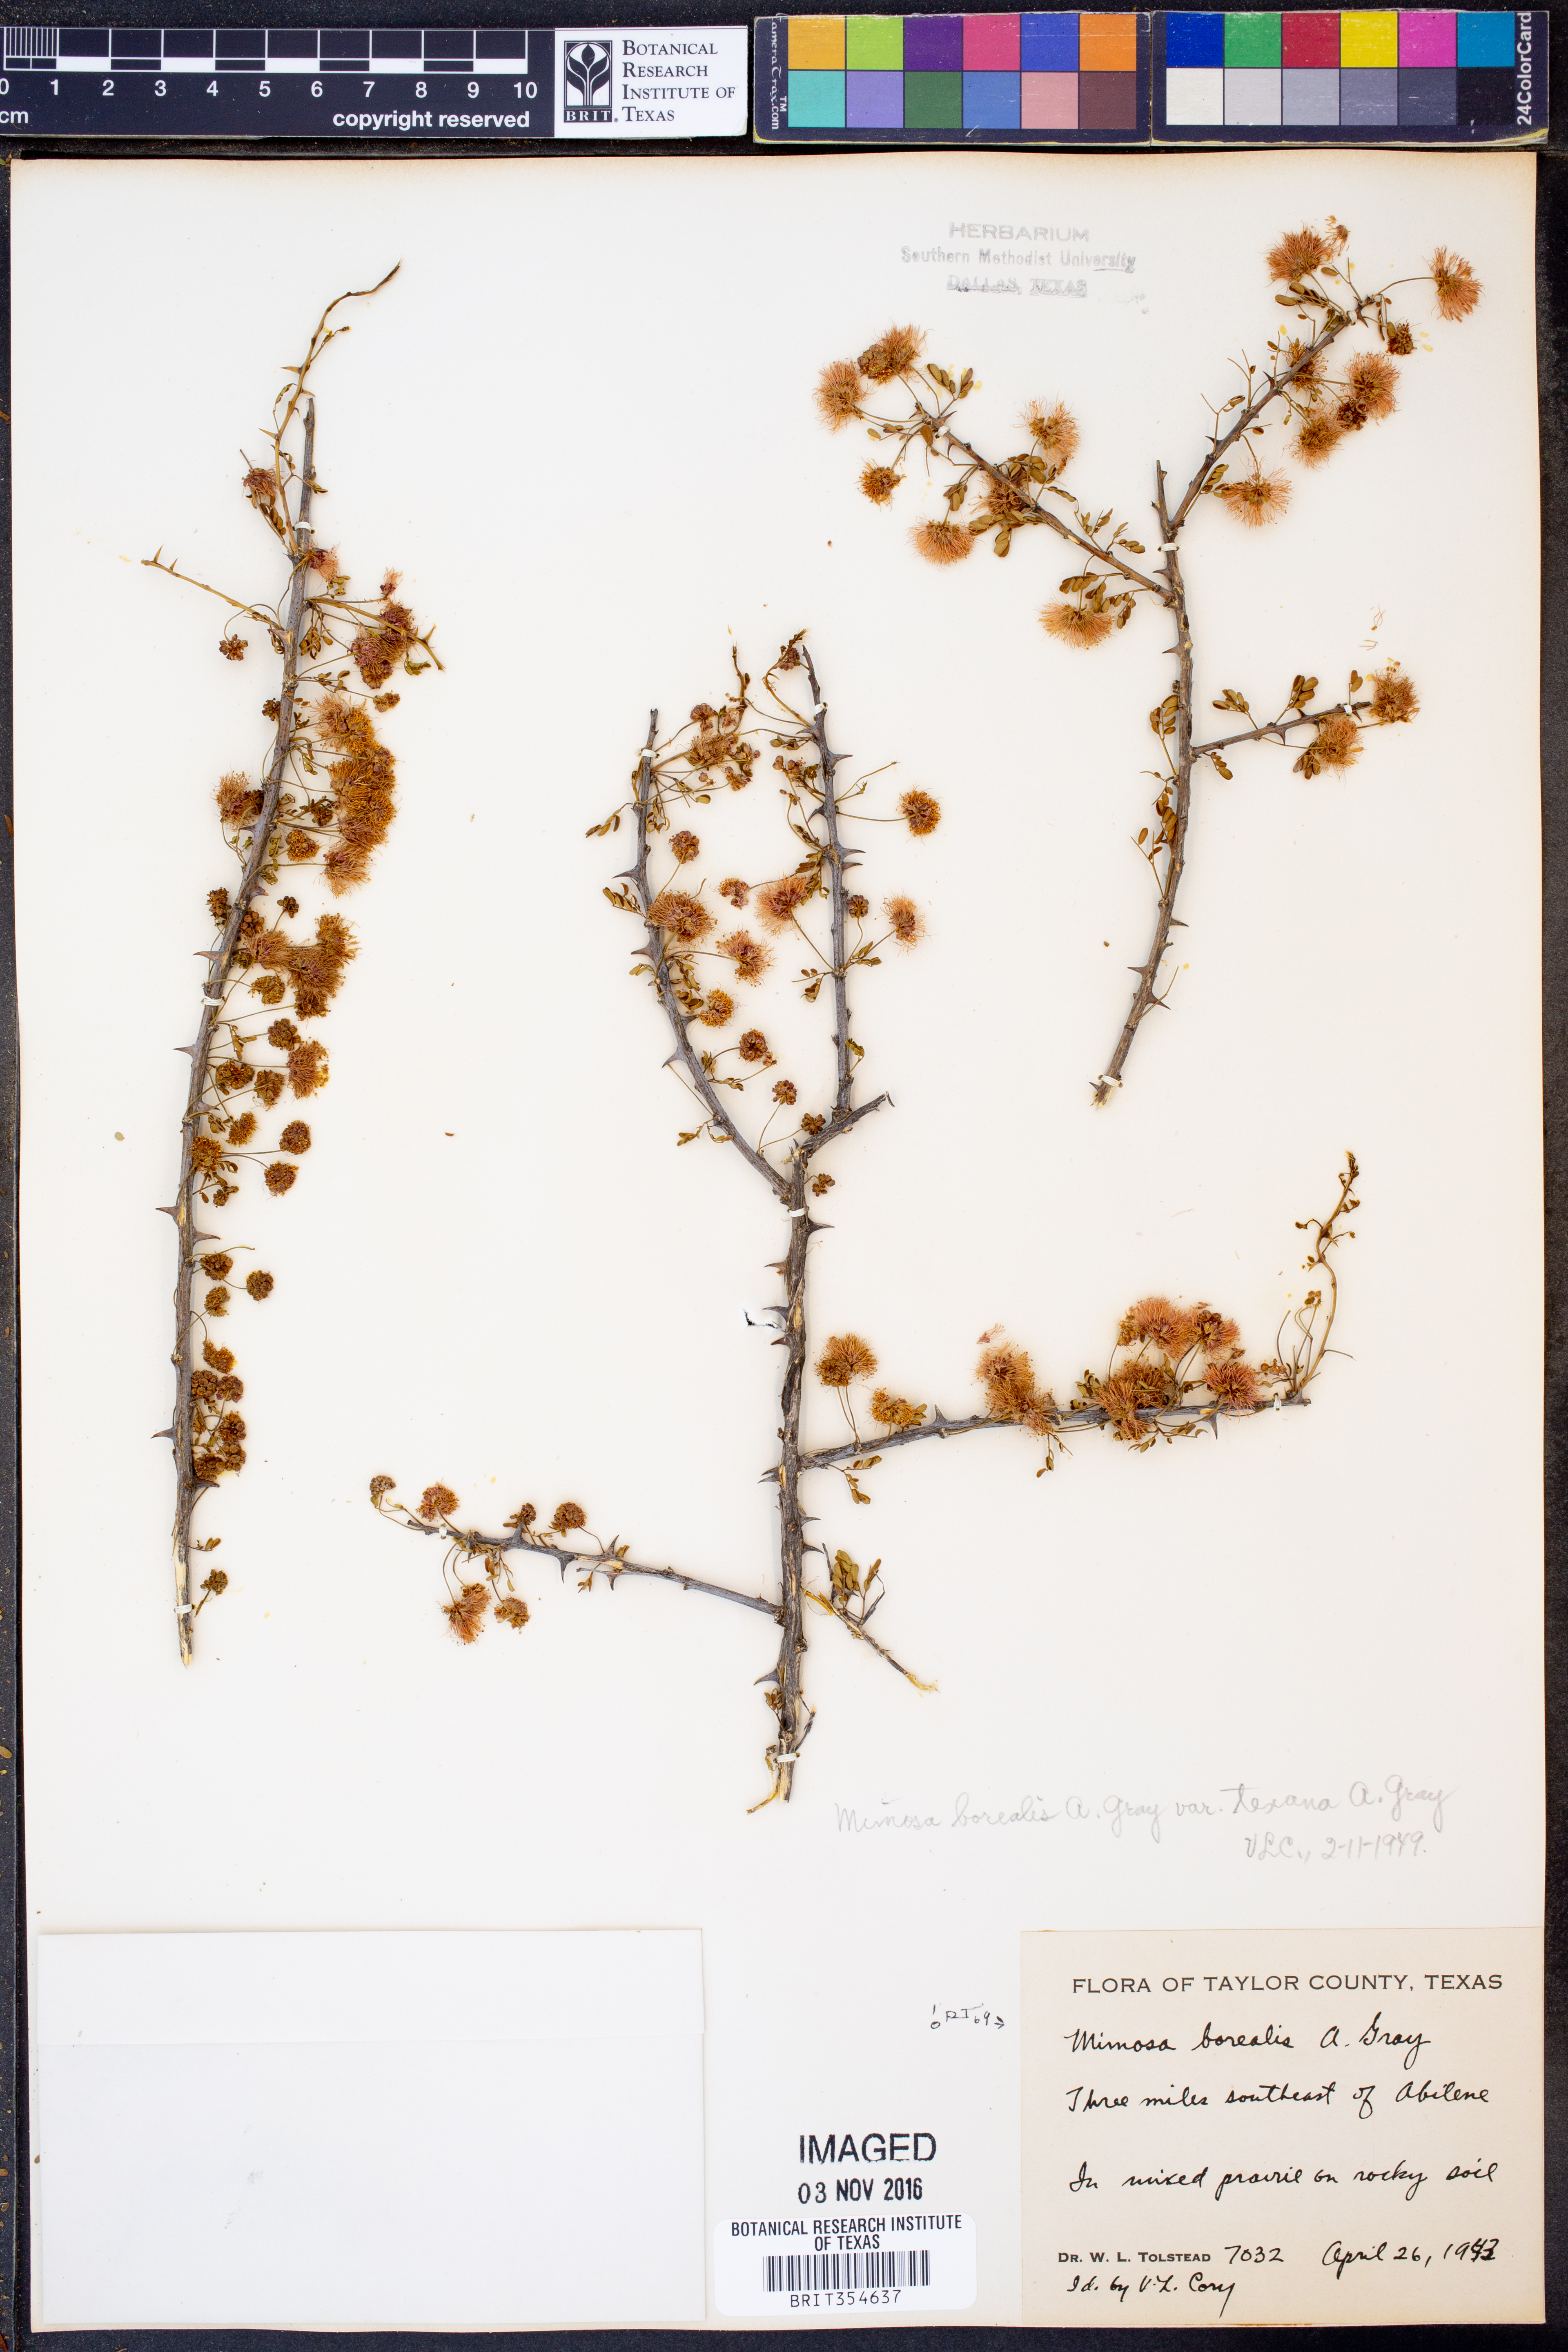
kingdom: Plantae
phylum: Tracheophyta
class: Magnoliopsida
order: Fabales
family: Fabaceae
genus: Mimosa
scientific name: Mimosa borealis
